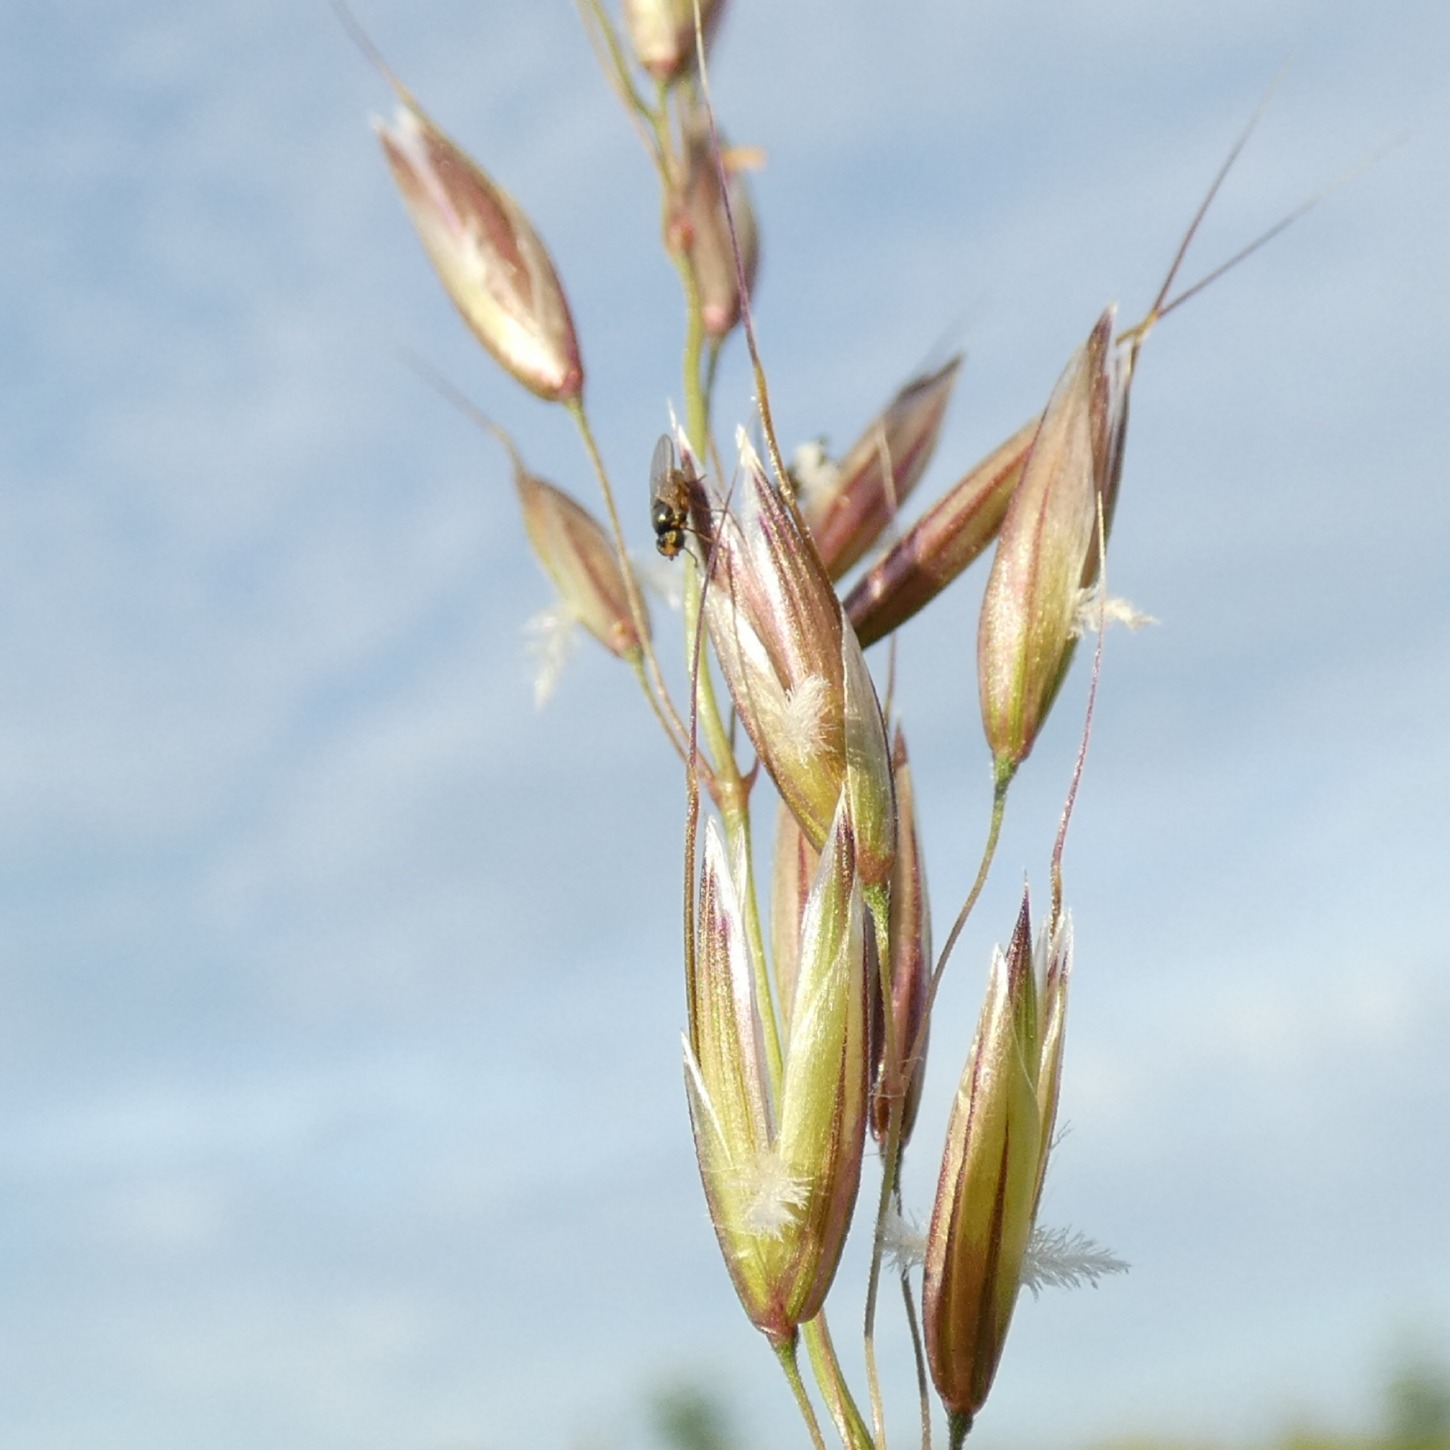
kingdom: Plantae
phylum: Tracheophyta
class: Liliopsida
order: Poales
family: Poaceae
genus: Arrhenatherum
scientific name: Arrhenatherum elatius
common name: Draphavre
